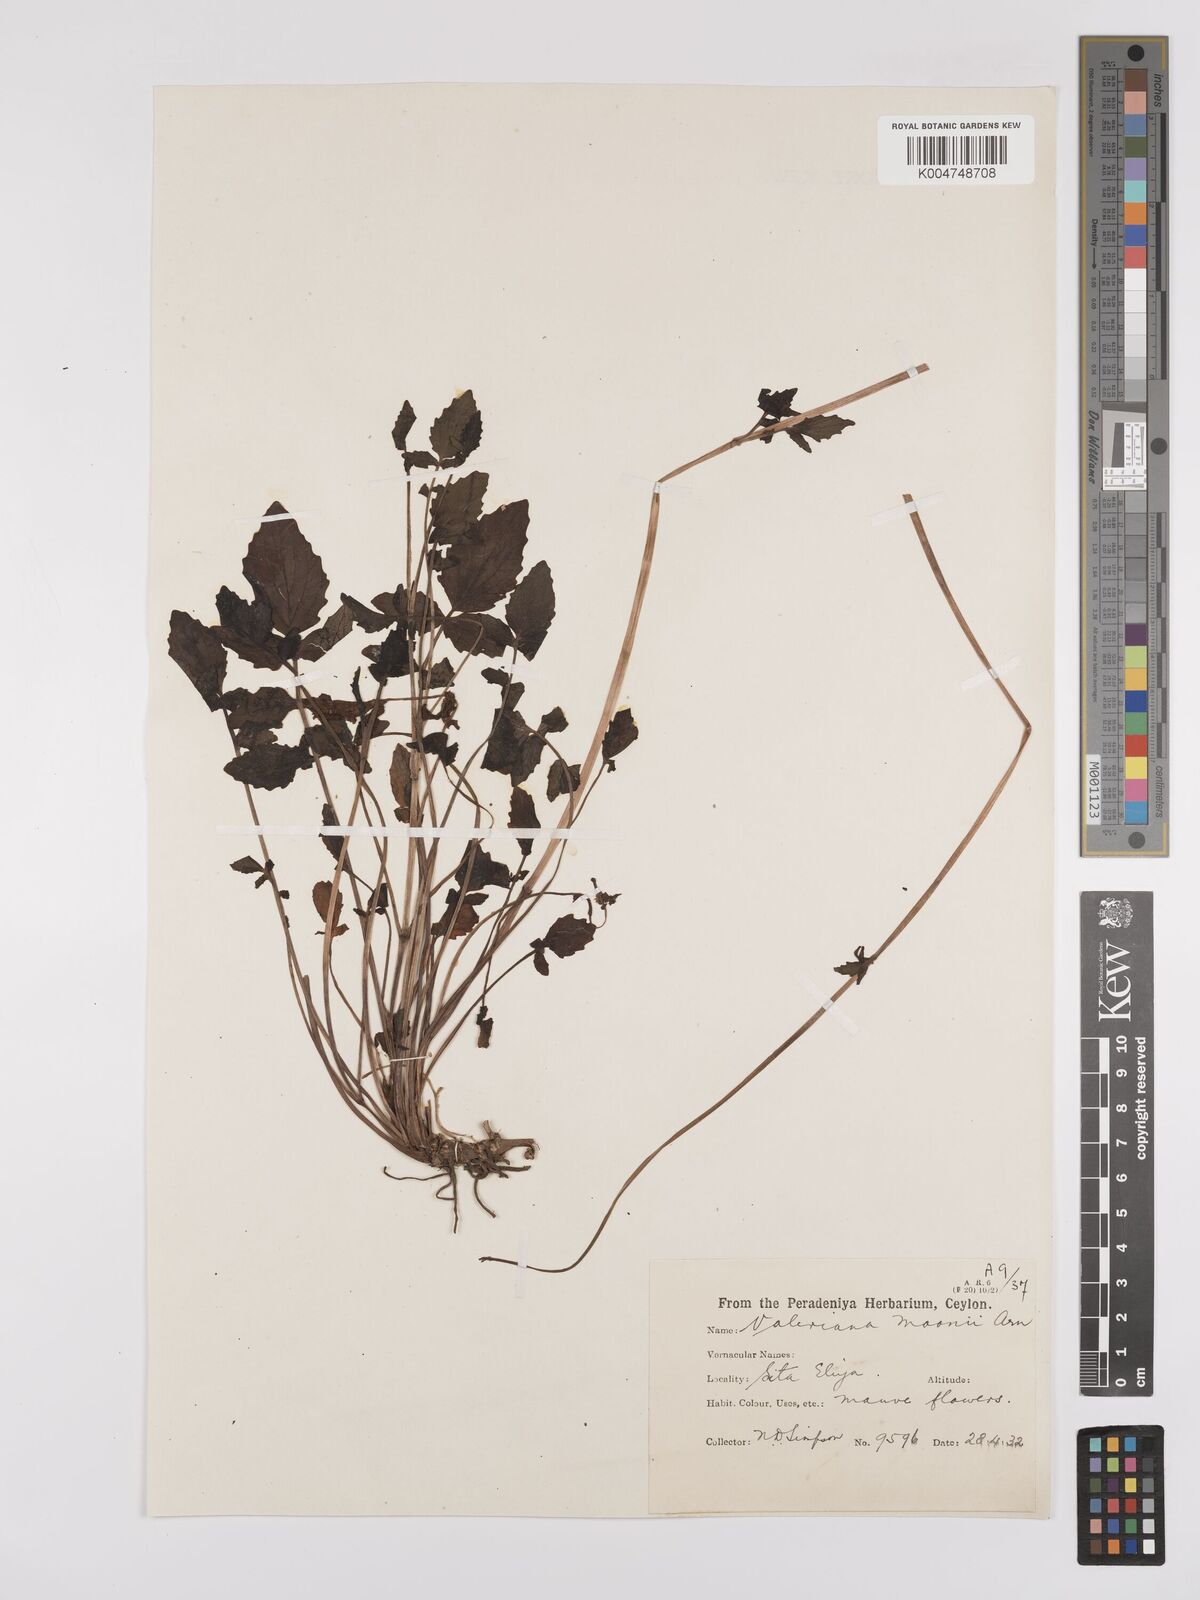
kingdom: Plantae
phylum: Tracheophyta
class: Magnoliopsida
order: Dipsacales
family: Caprifoliaceae
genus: Valeriana
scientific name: Valeriana moonii
